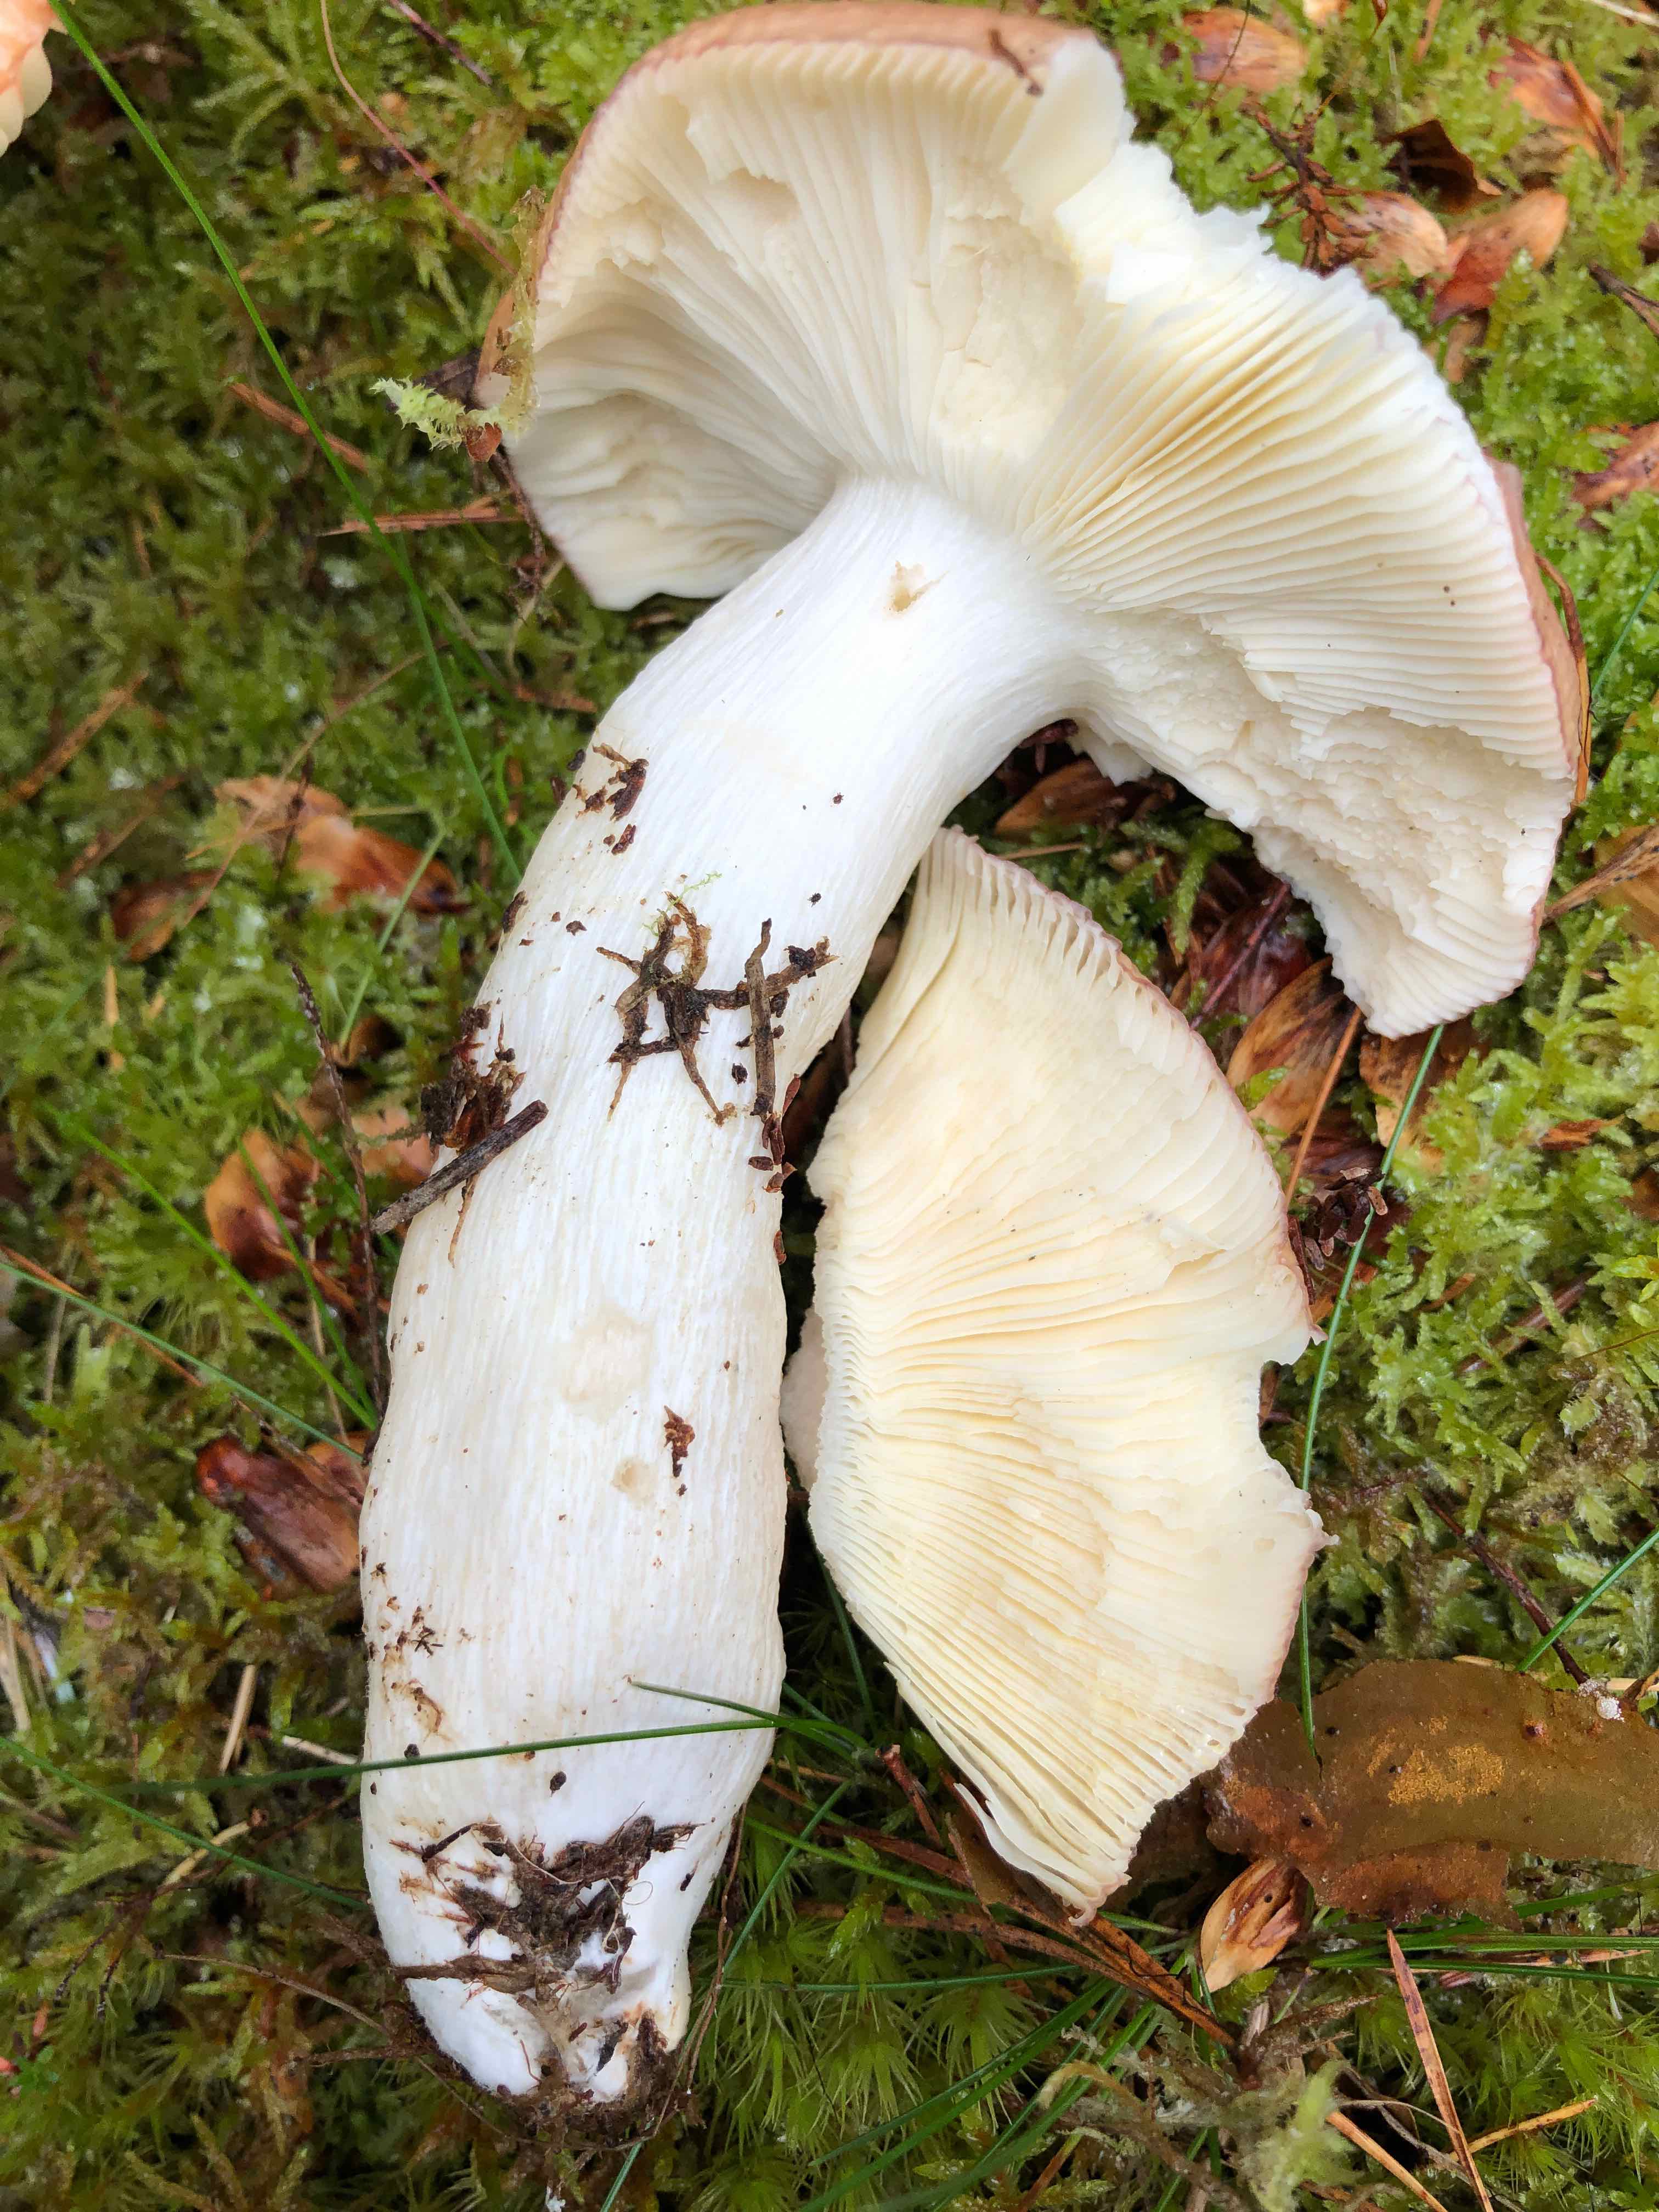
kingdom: Fungi
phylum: Basidiomycota
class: Agaricomycetes
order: Russulales
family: Russulaceae
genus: Russula
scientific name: Russula paludosa
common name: prægtig skørhat
